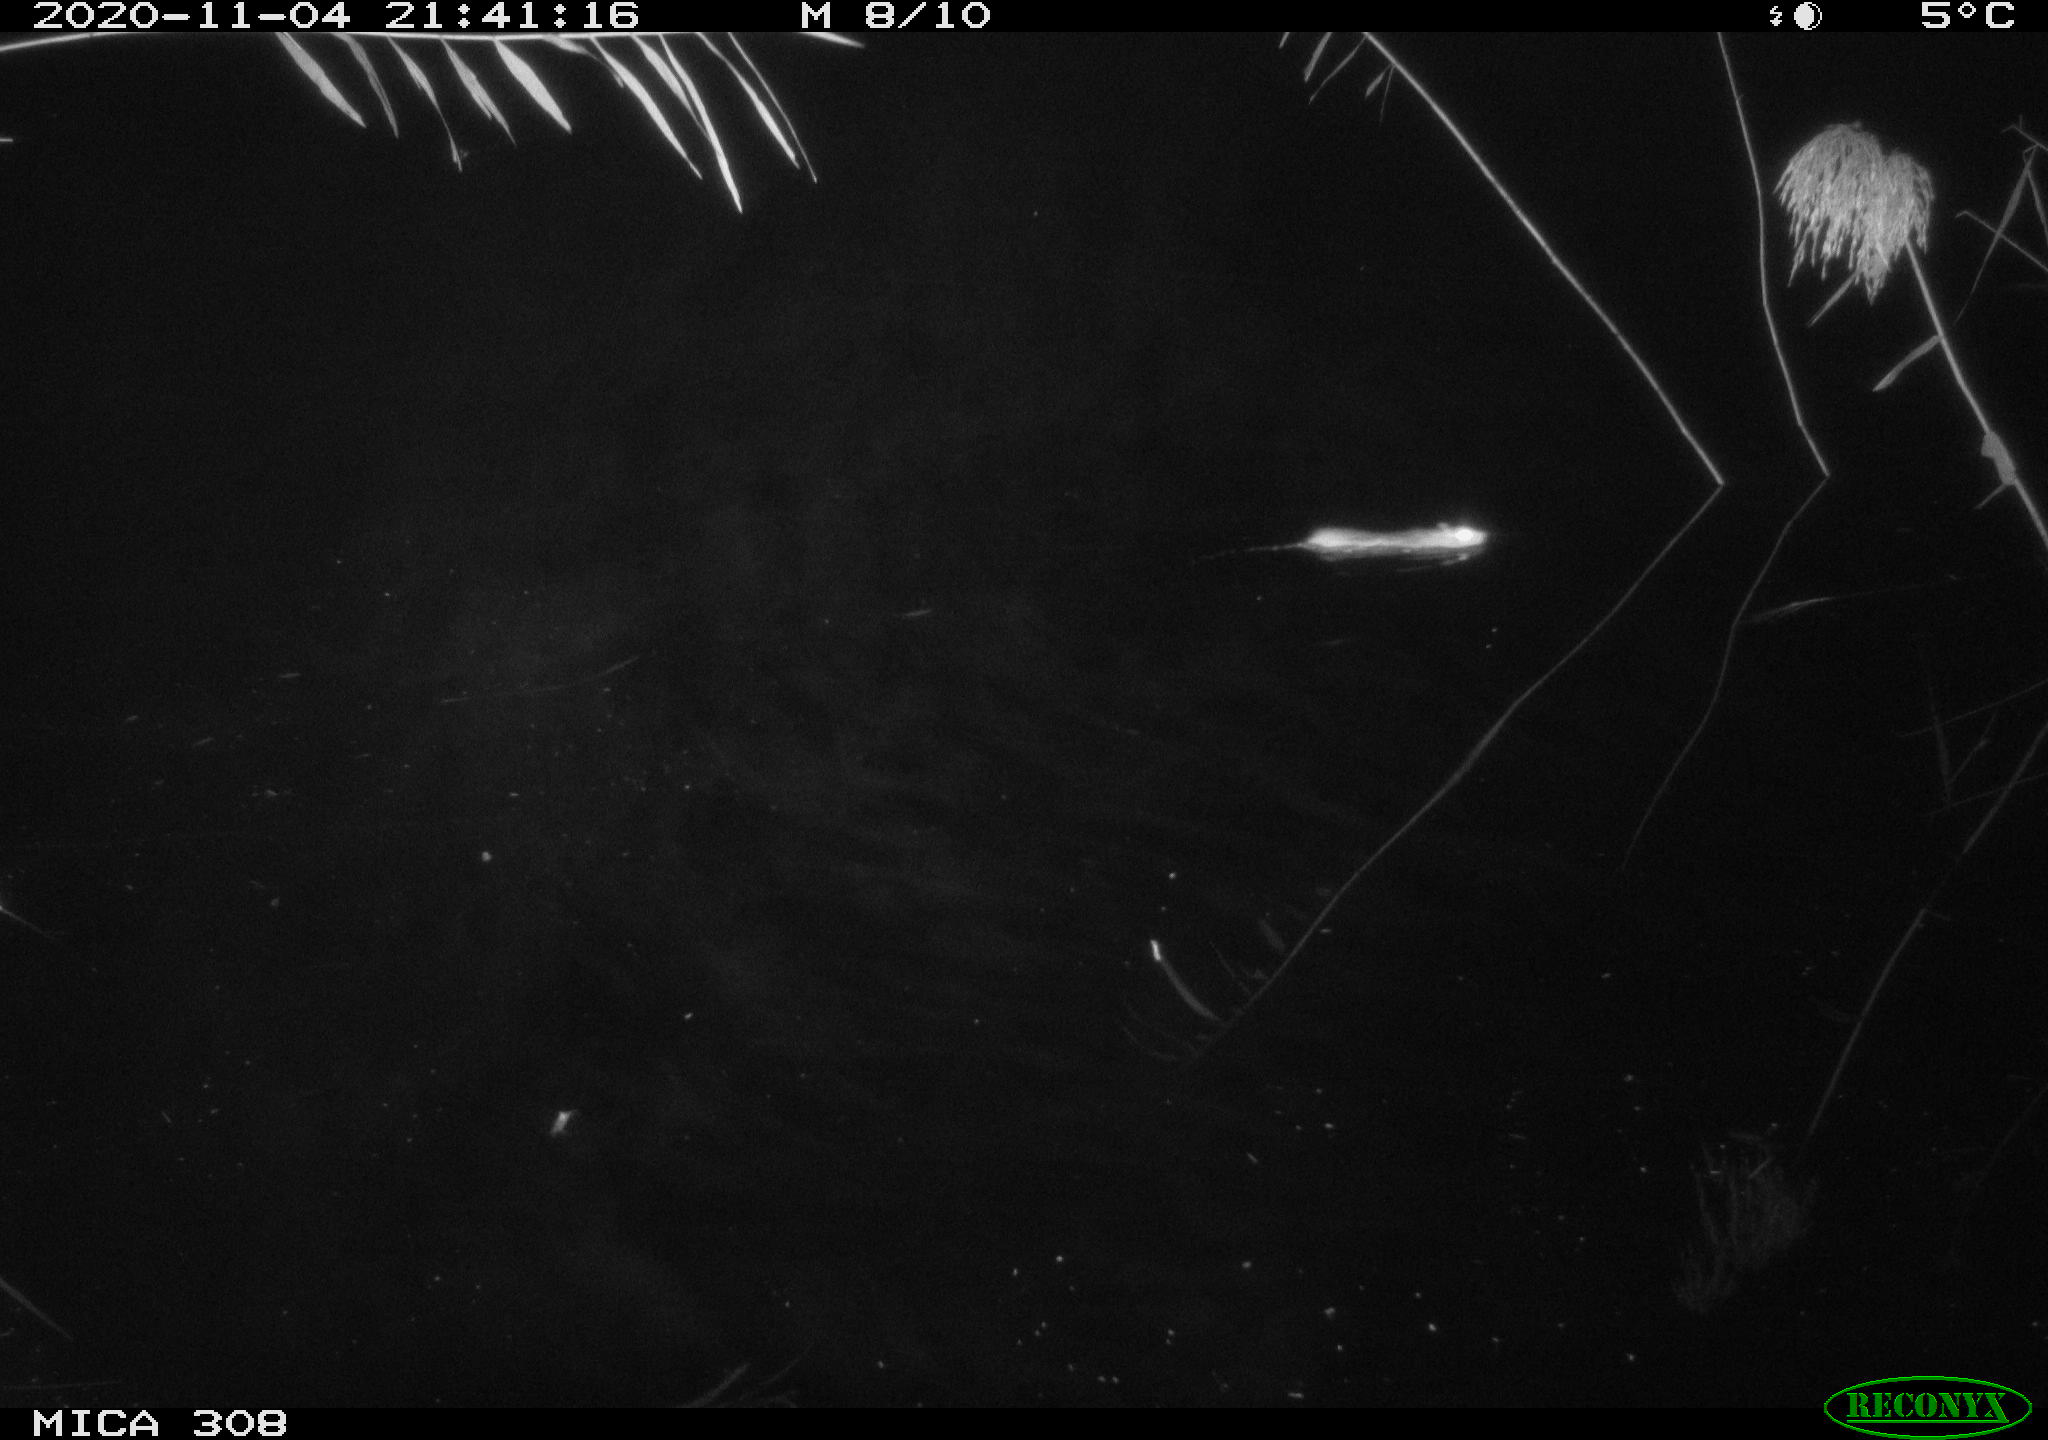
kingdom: Animalia
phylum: Chordata
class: Mammalia
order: Rodentia
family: Muridae
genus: Rattus
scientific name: Rattus norvegicus
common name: Brown rat
